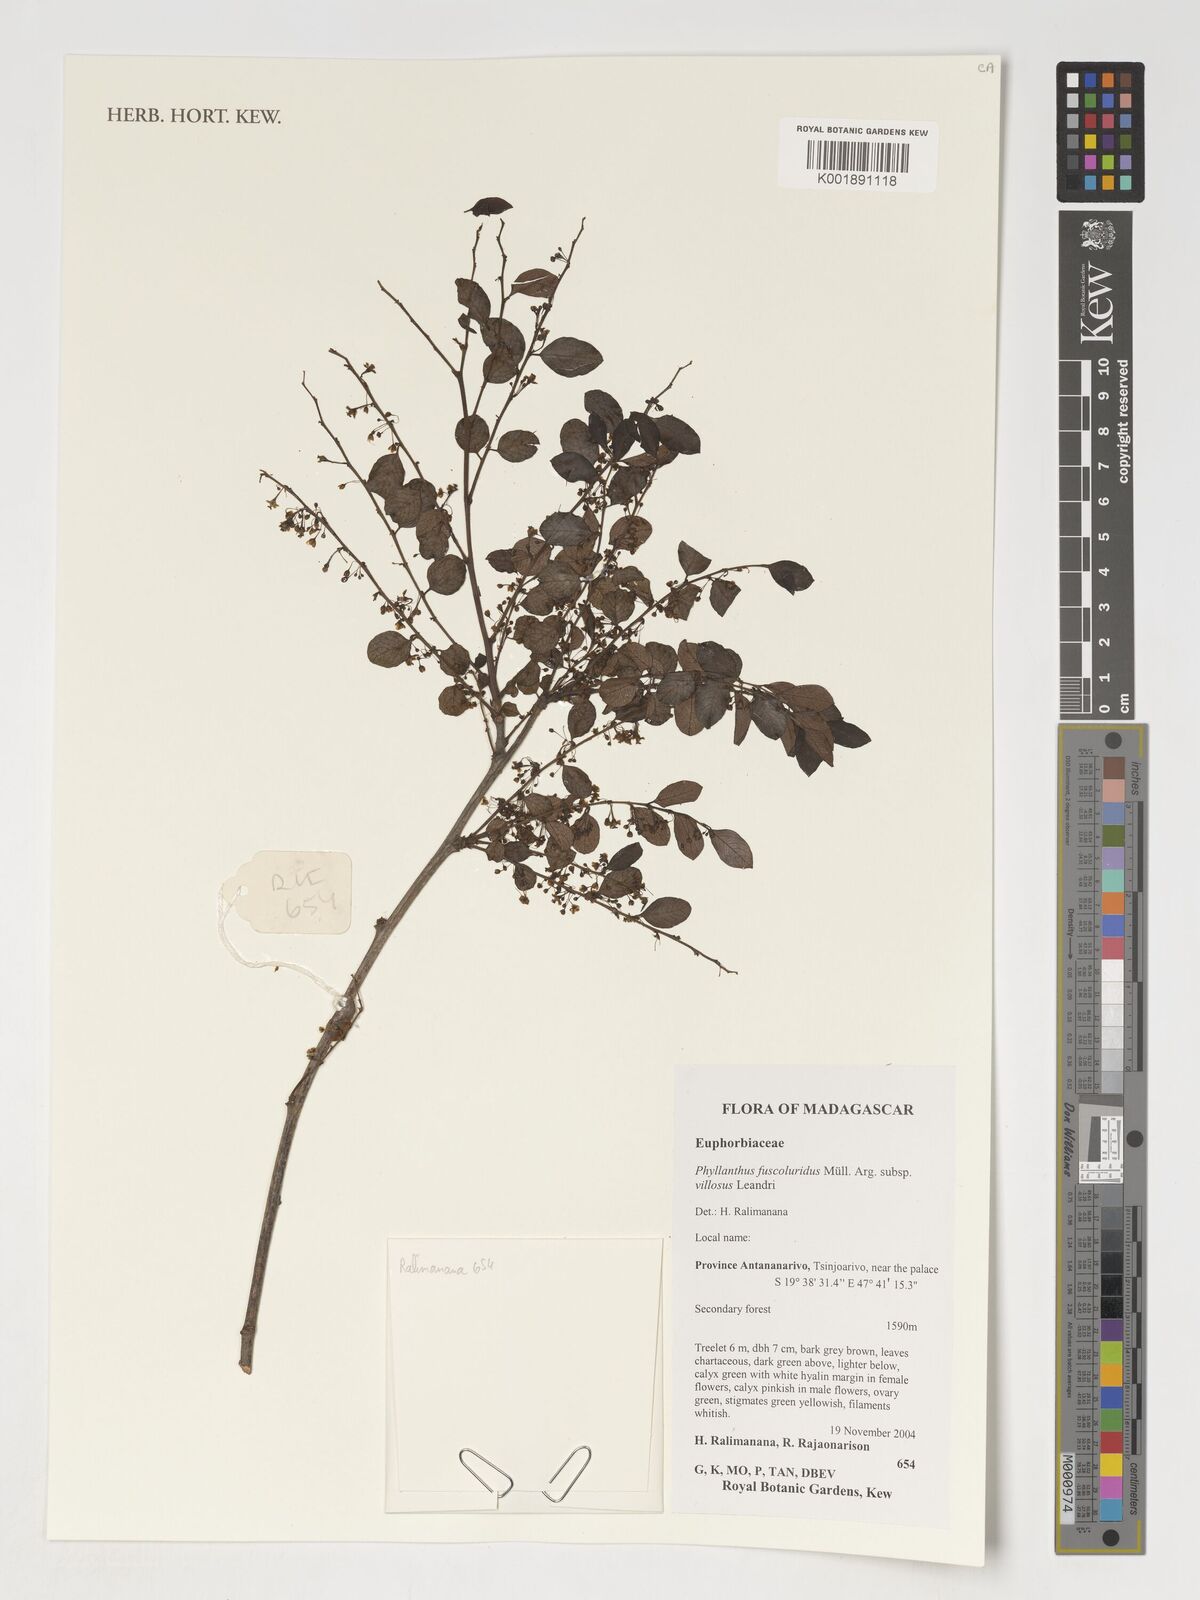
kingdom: Plantae
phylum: Tracheophyta
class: Magnoliopsida
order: Malpighiales
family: Phyllanthaceae
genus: Phyllanthus
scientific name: Phyllanthus fuscoluridus
